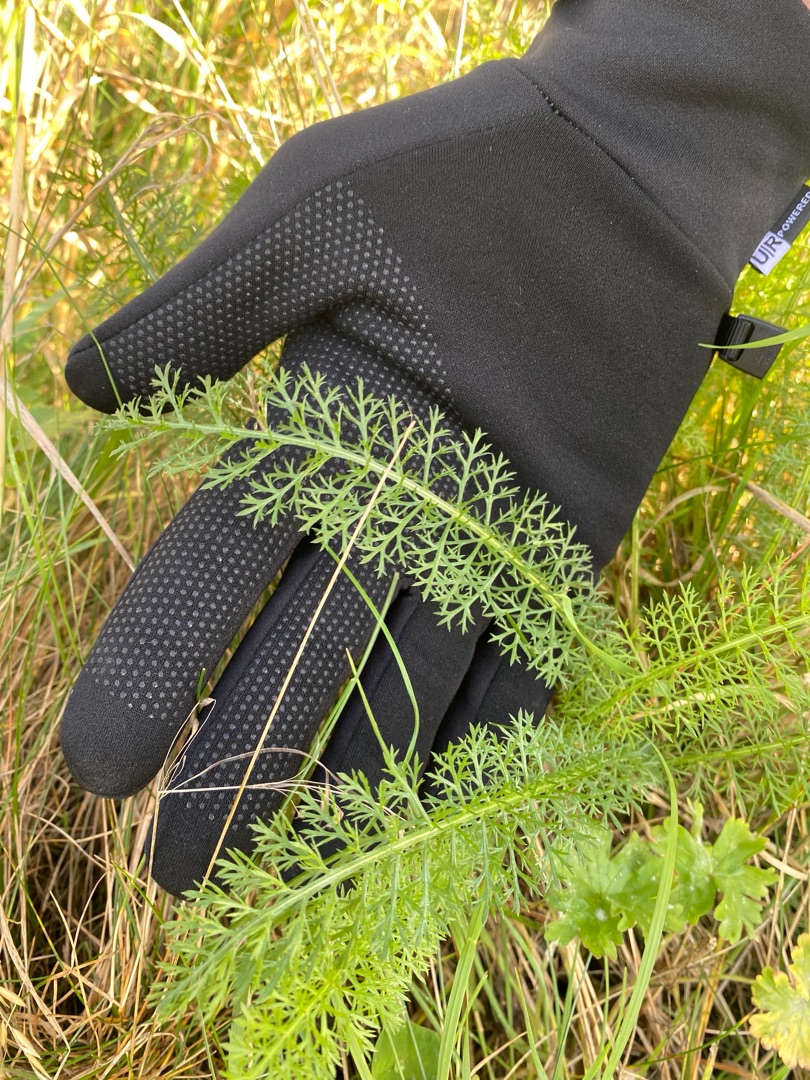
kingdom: Plantae
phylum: Tracheophyta
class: Magnoliopsida
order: Asterales
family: Asteraceae
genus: Achillea
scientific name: Achillea millefolium
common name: Almindelig røllike
